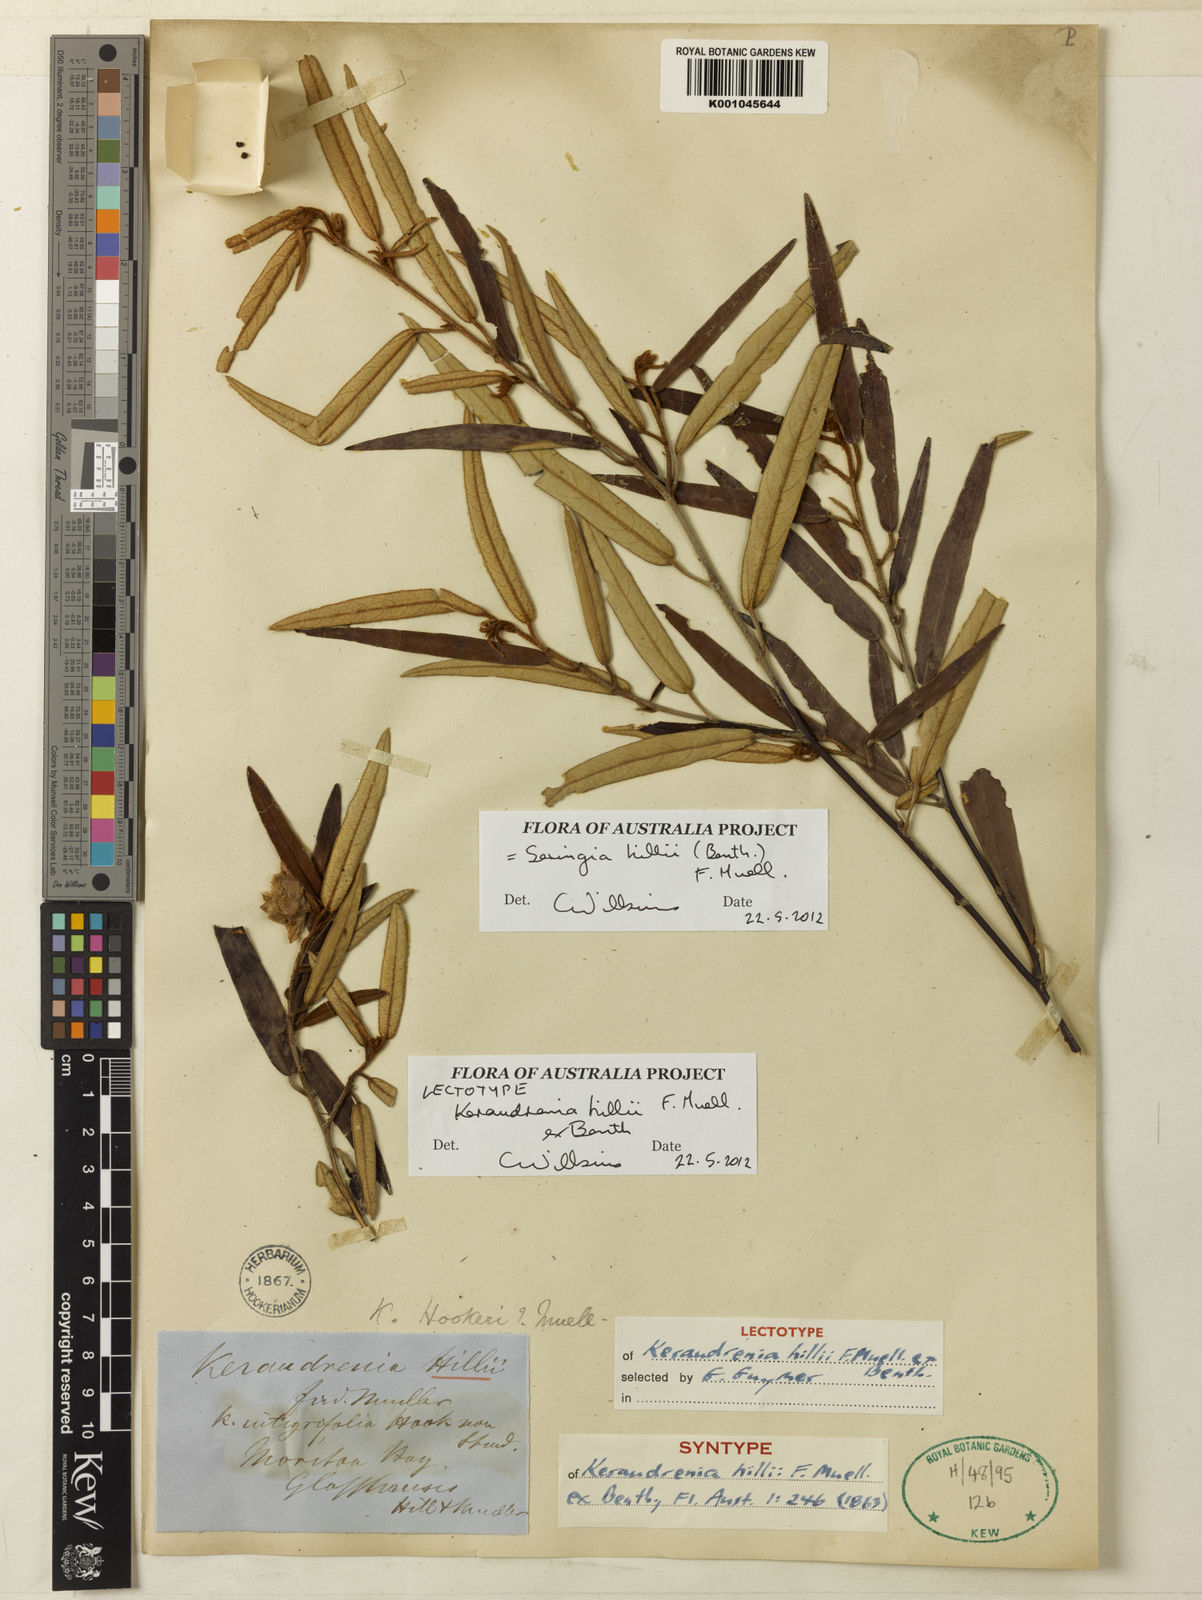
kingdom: Plantae
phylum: Tracheophyta
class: Magnoliopsida
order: Malvales
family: Malvaceae
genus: Seringia
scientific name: Seringia hillii
